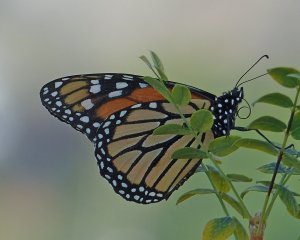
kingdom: Animalia
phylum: Arthropoda
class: Insecta
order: Lepidoptera
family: Nymphalidae
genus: Danaus
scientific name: Danaus plexippus
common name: Monarch
